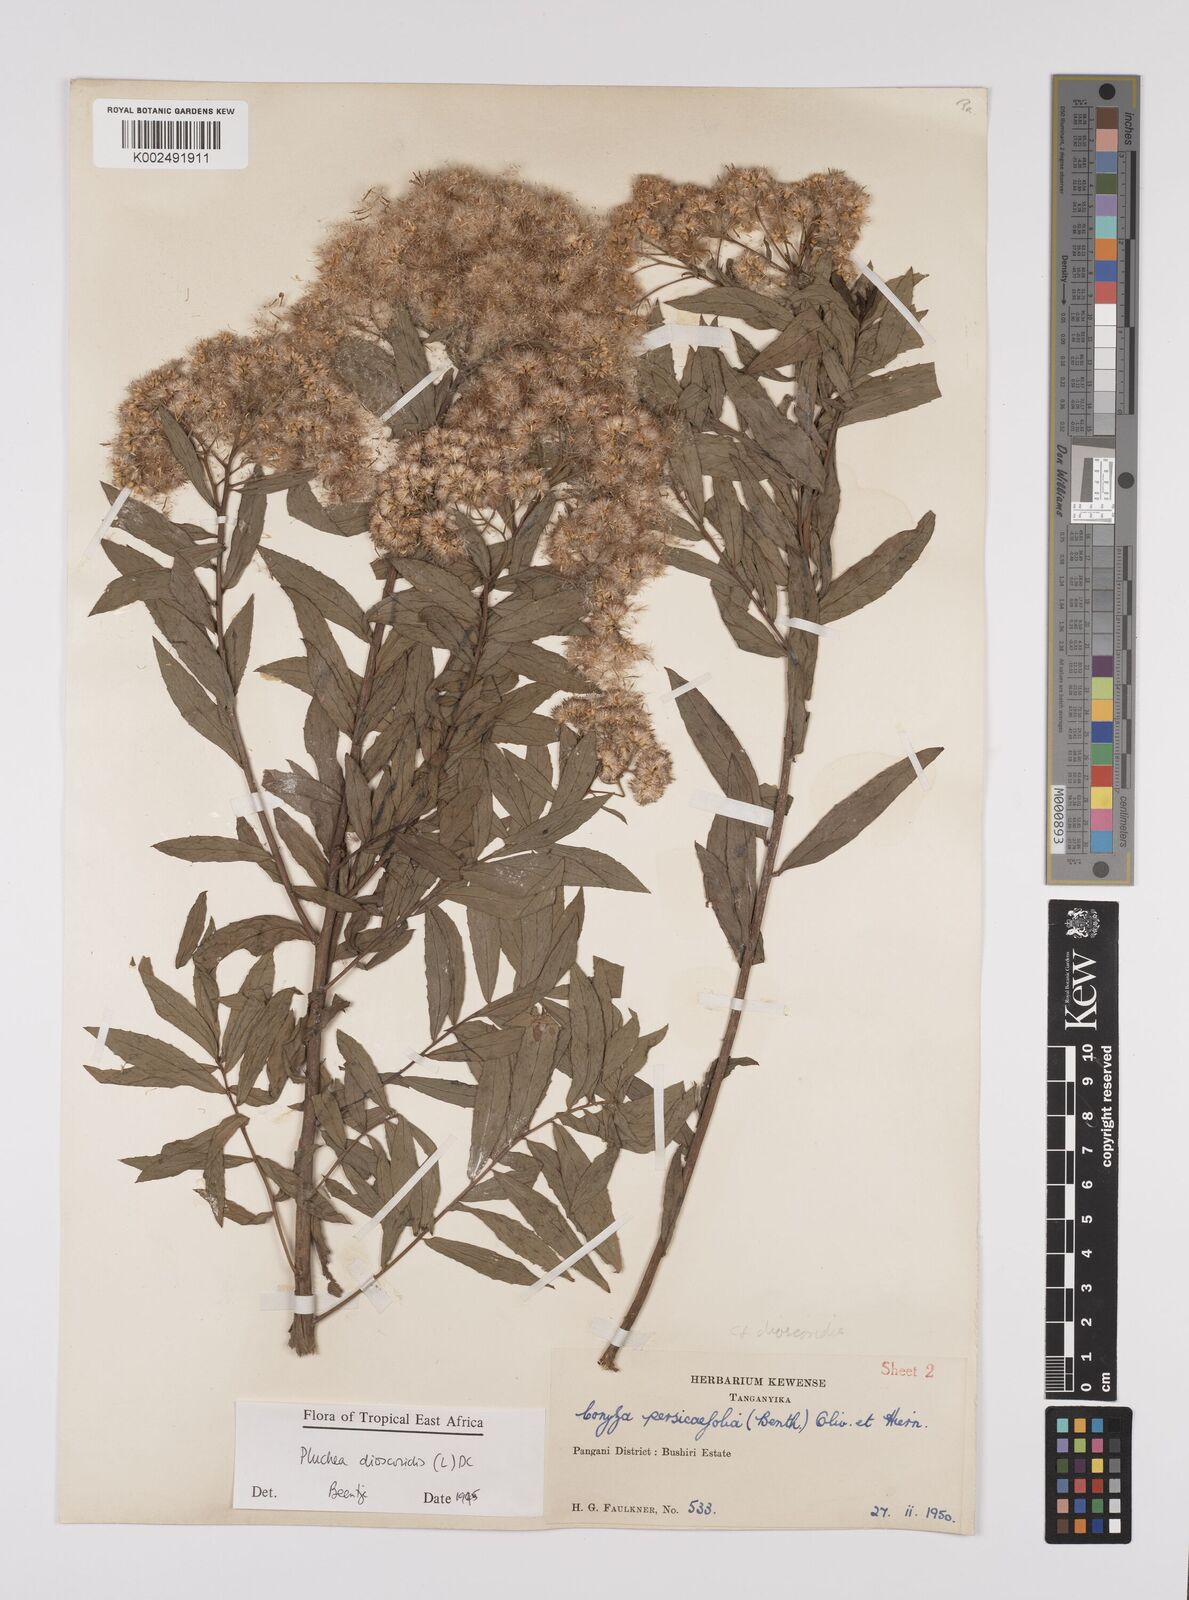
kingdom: Plantae
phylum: Tracheophyta
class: Magnoliopsida
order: Asterales
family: Asteraceae
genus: Pluchea
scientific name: Pluchea dioscoridis
